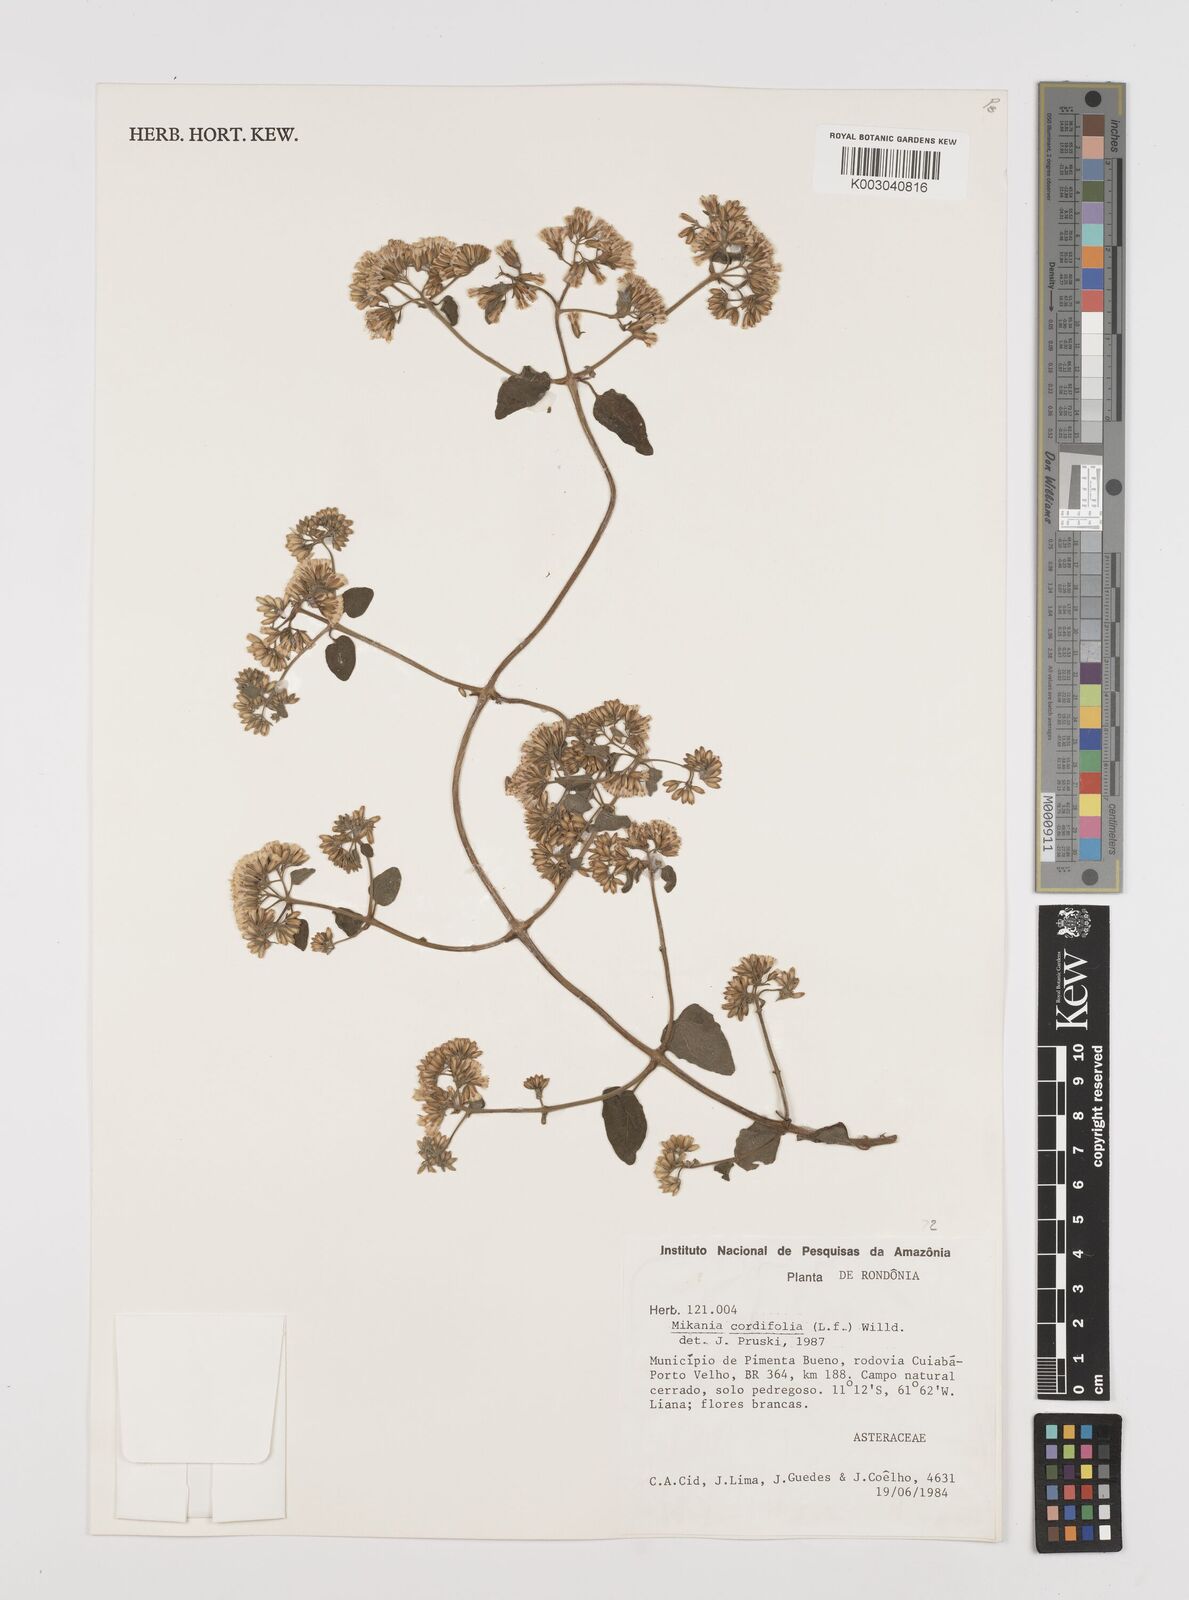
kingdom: Plantae
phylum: Tracheophyta
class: Magnoliopsida
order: Asterales
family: Asteraceae
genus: Mikania
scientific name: Mikania cordifolia
